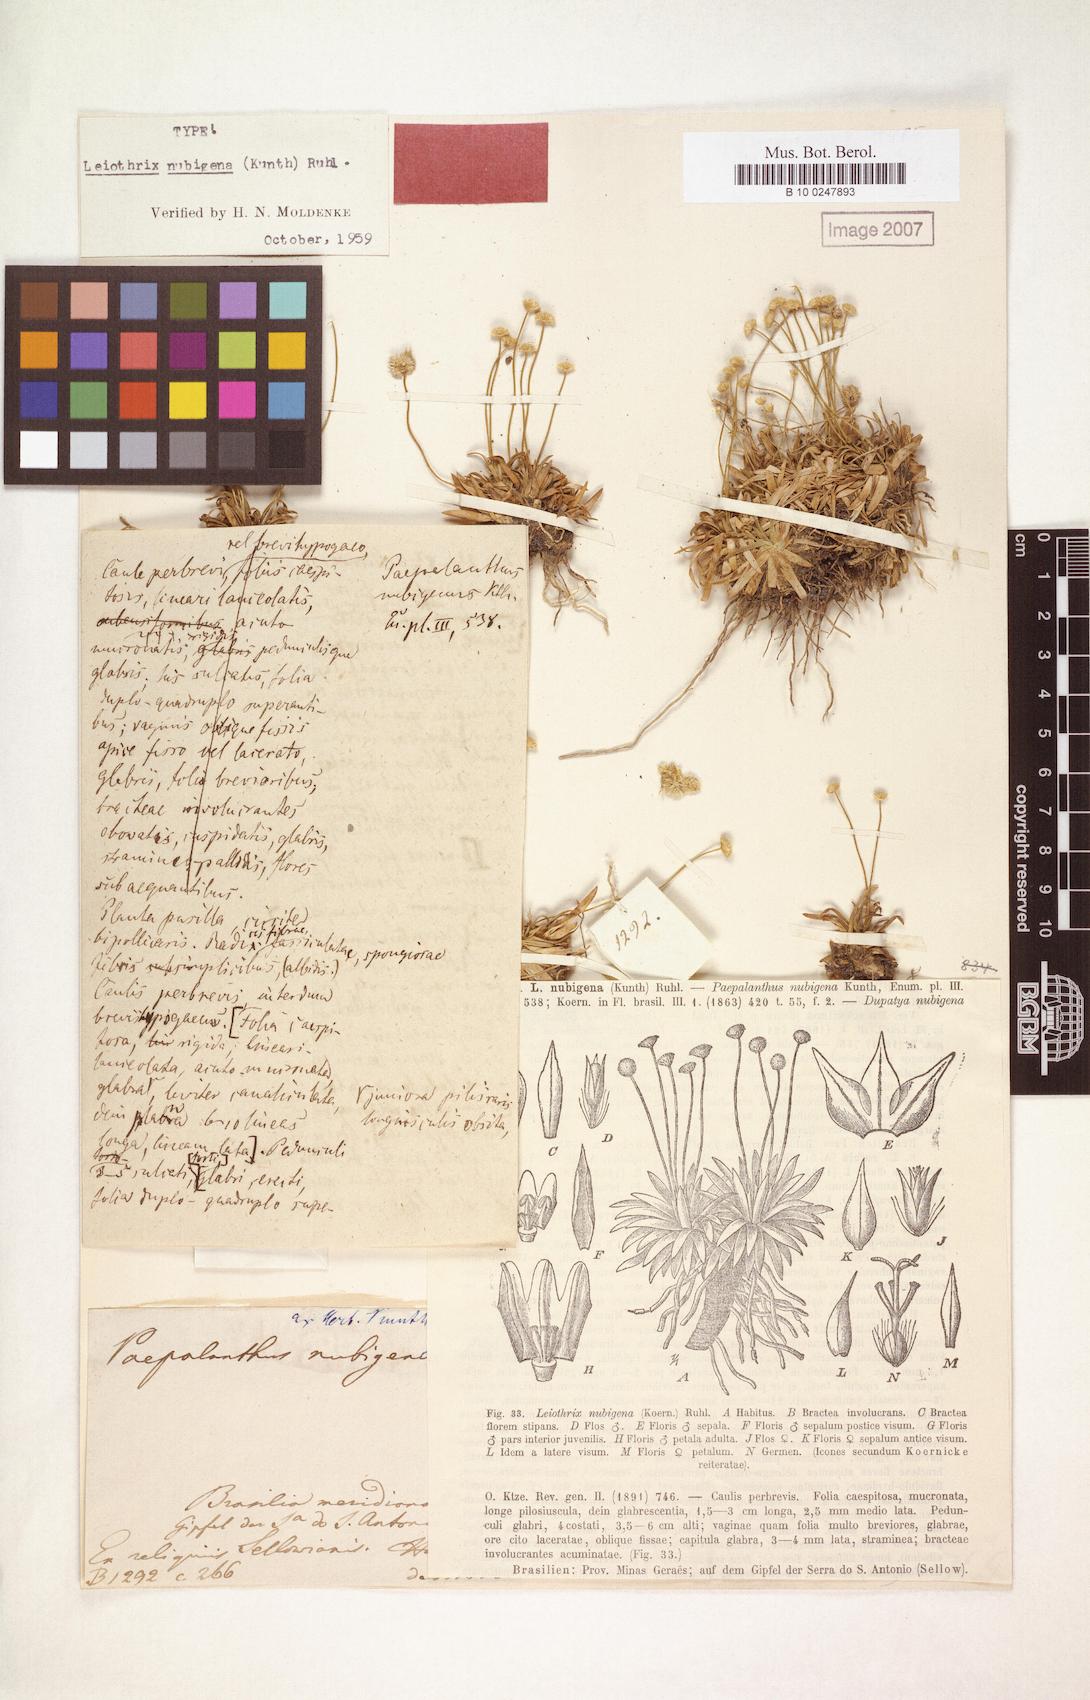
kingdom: Plantae
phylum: Tracheophyta
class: Liliopsida
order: Poales
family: Eriocaulaceae
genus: Leiothrix
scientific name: Leiothrix crassifolia
